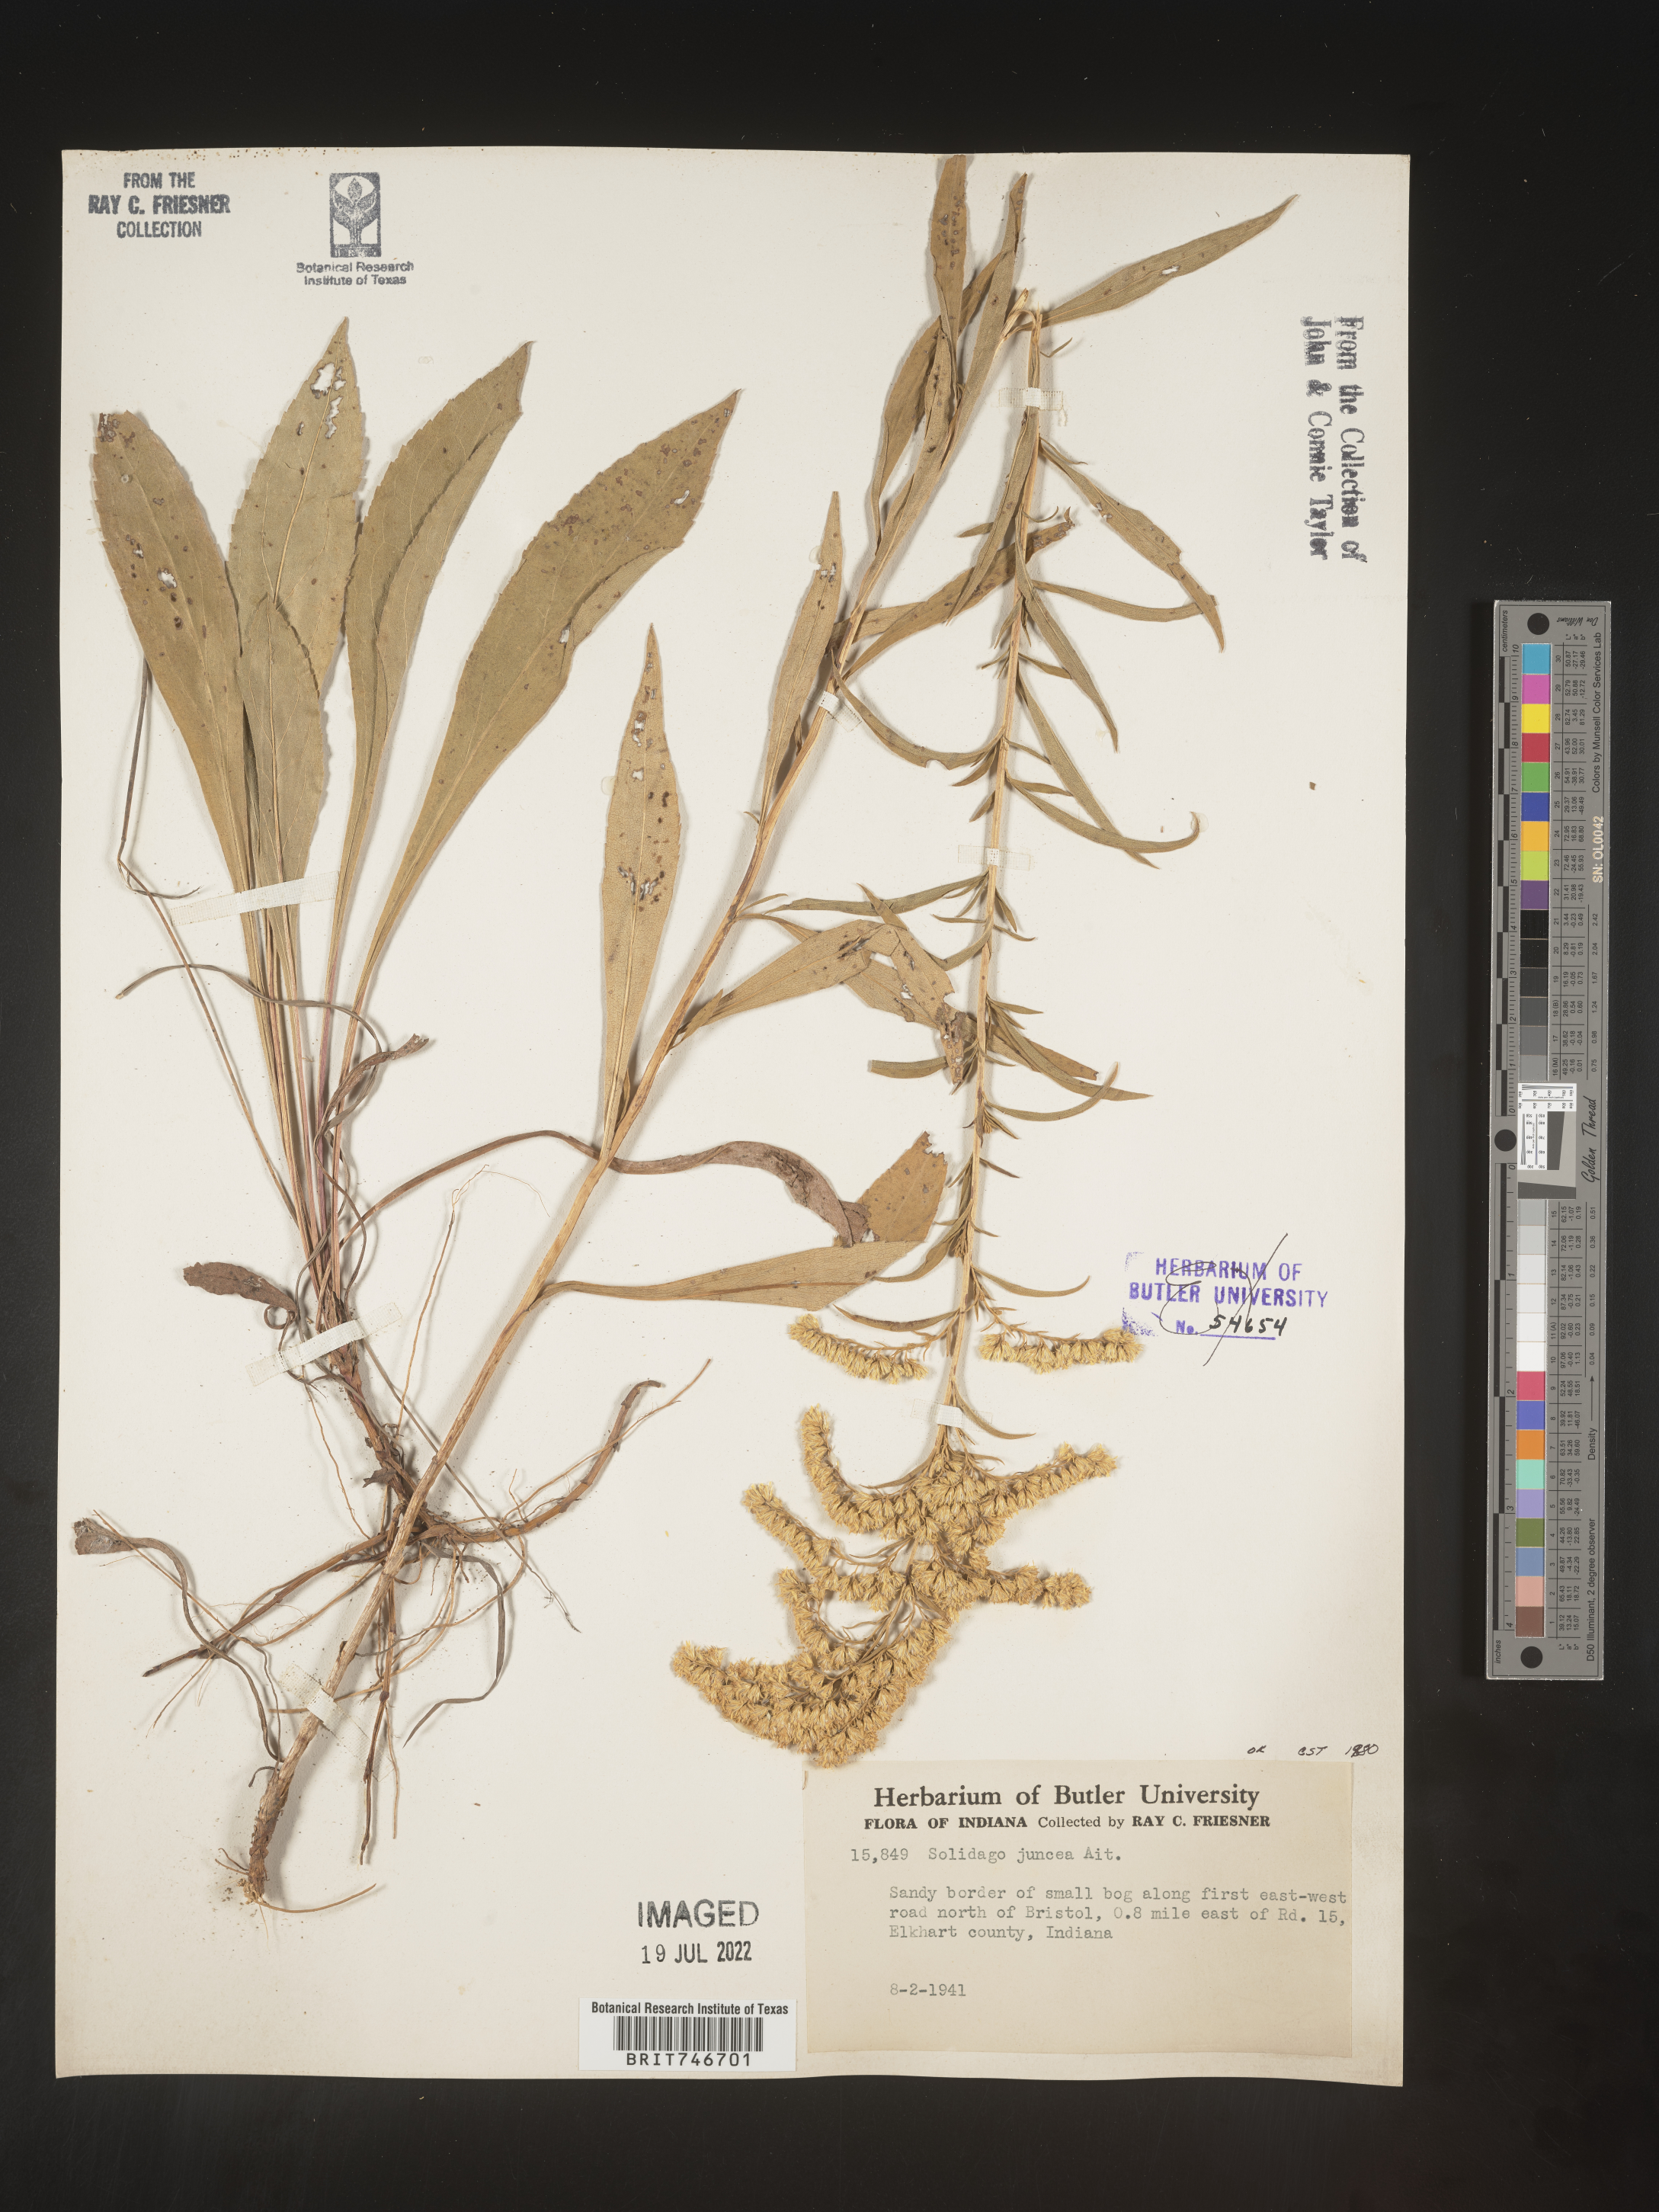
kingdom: Plantae
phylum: Tracheophyta
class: Magnoliopsida
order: Asterales
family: Asteraceae
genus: Solidago
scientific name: Solidago juncea
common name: Early goldenrod
